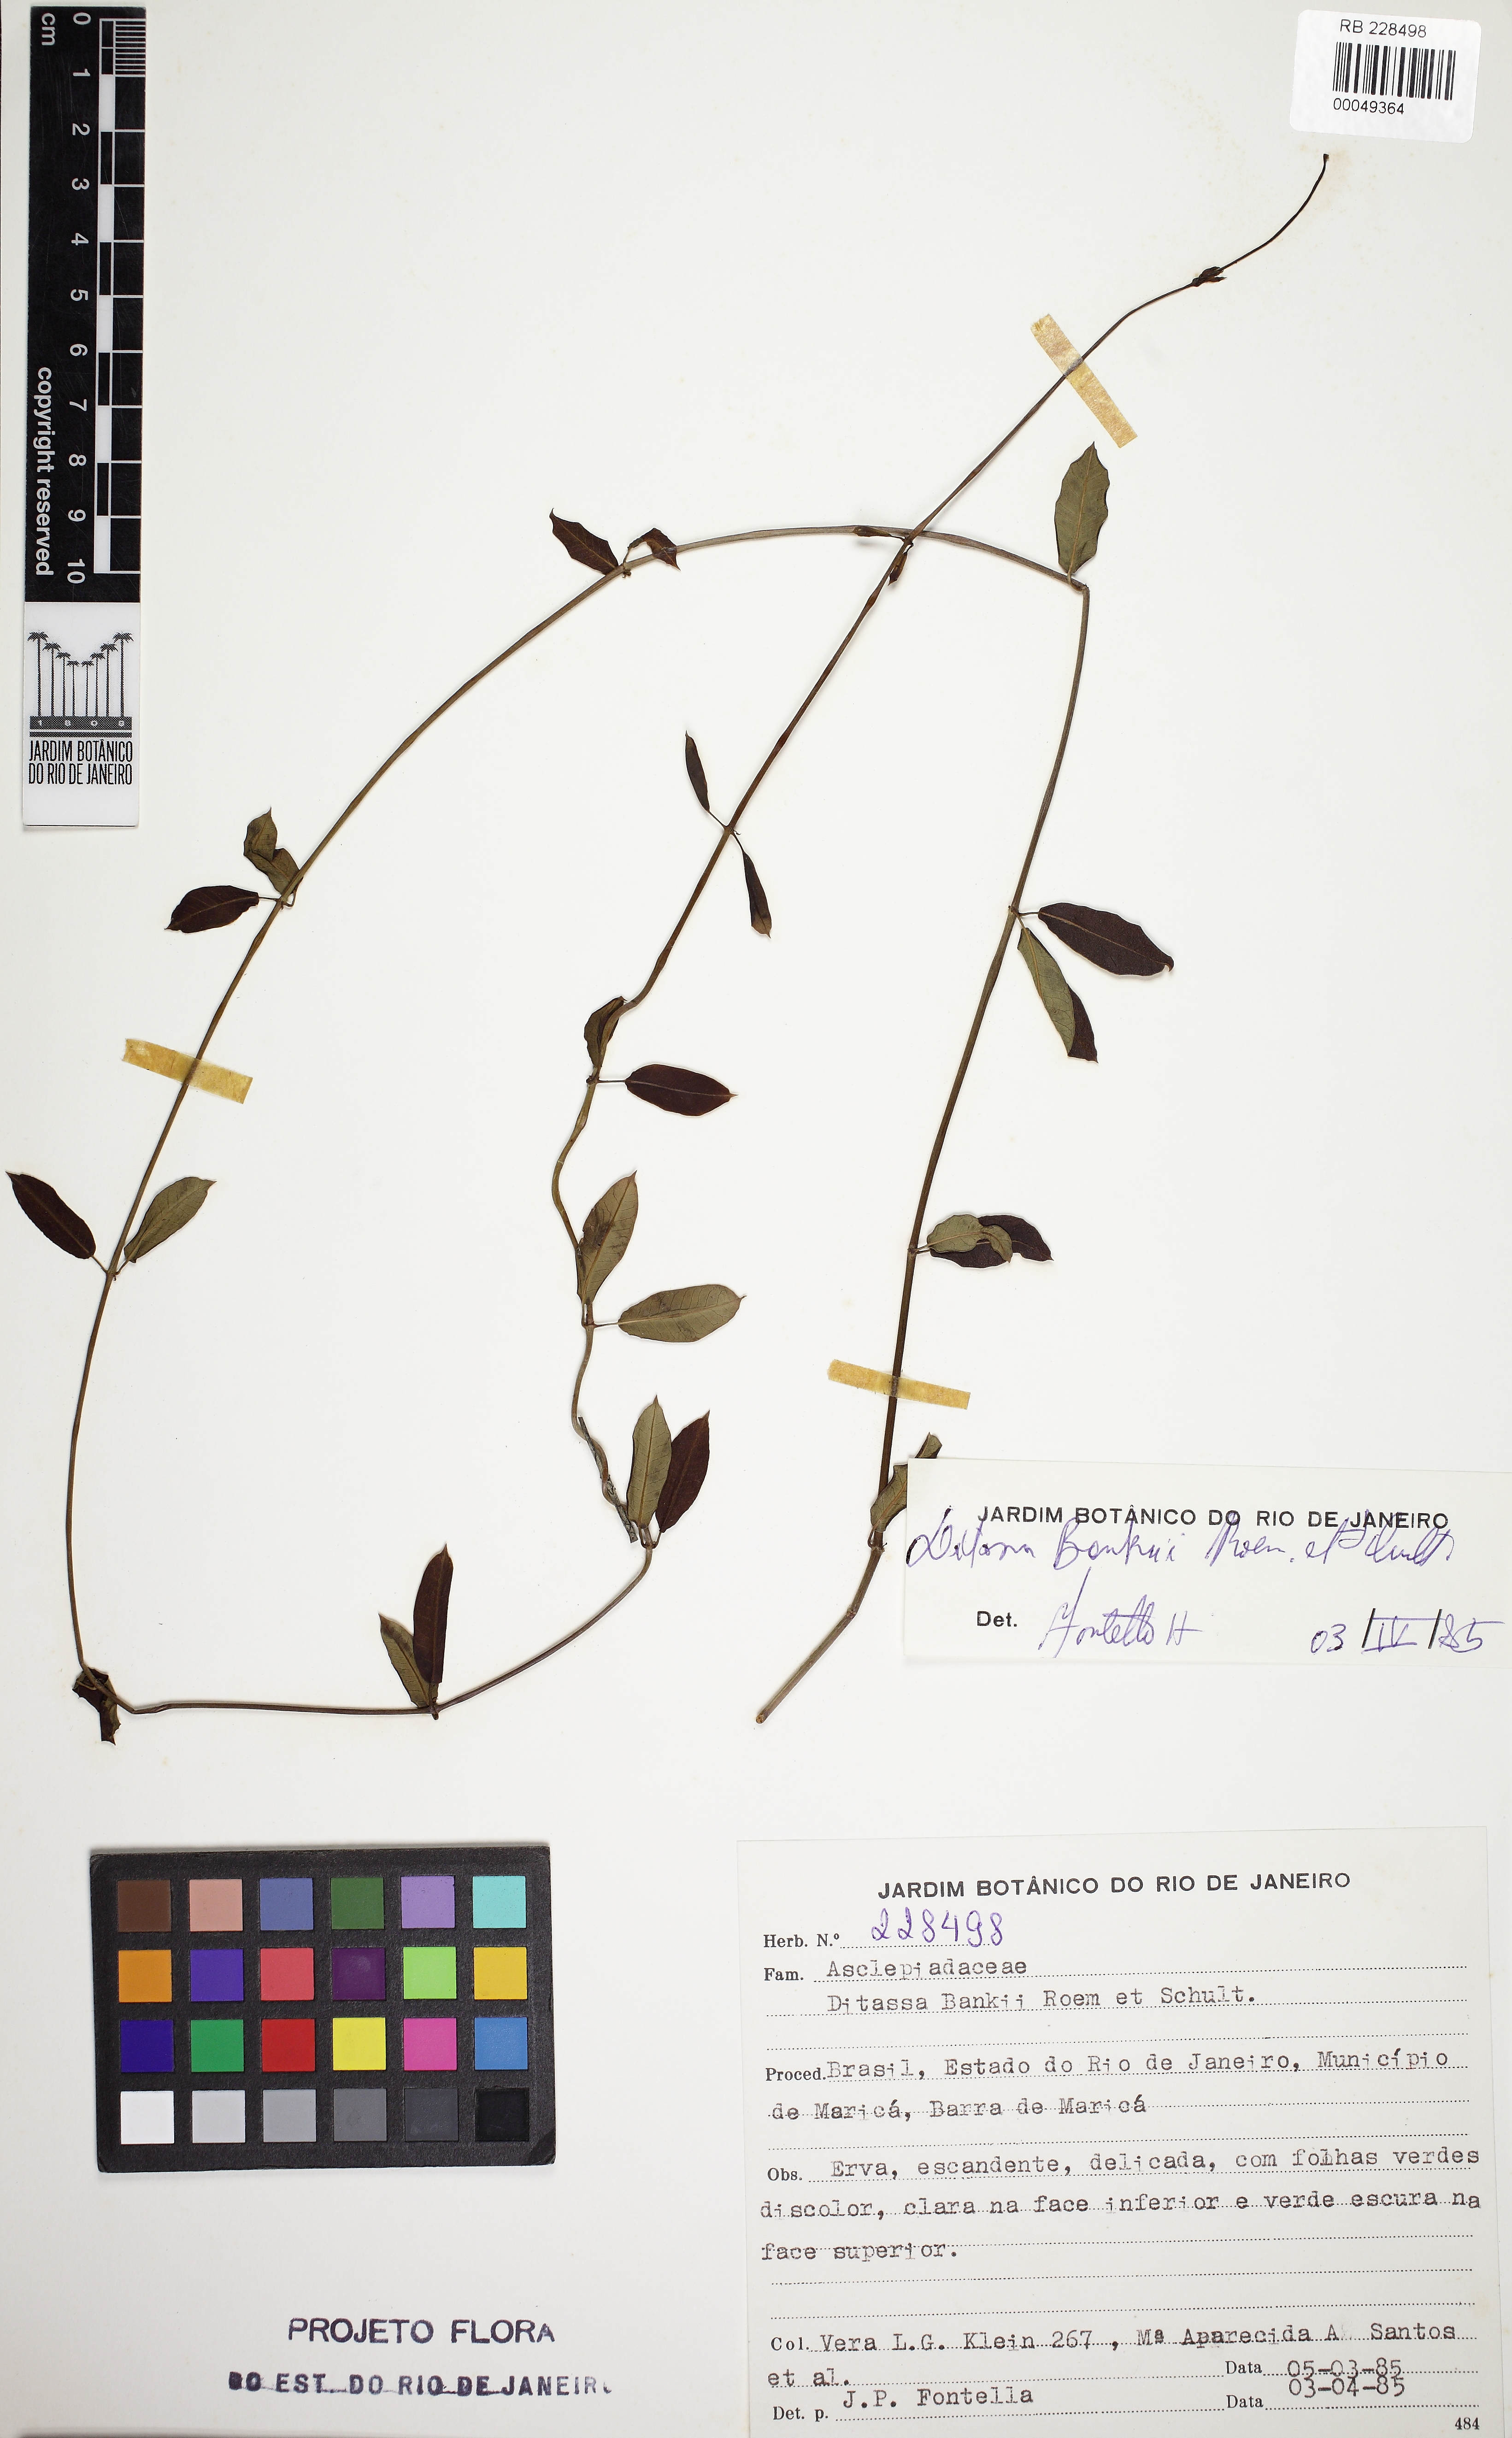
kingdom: Plantae
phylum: Tracheophyta
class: Magnoliopsida
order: Gentianales
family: Apocynaceae
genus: Ditassa
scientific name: Ditassa banksii
